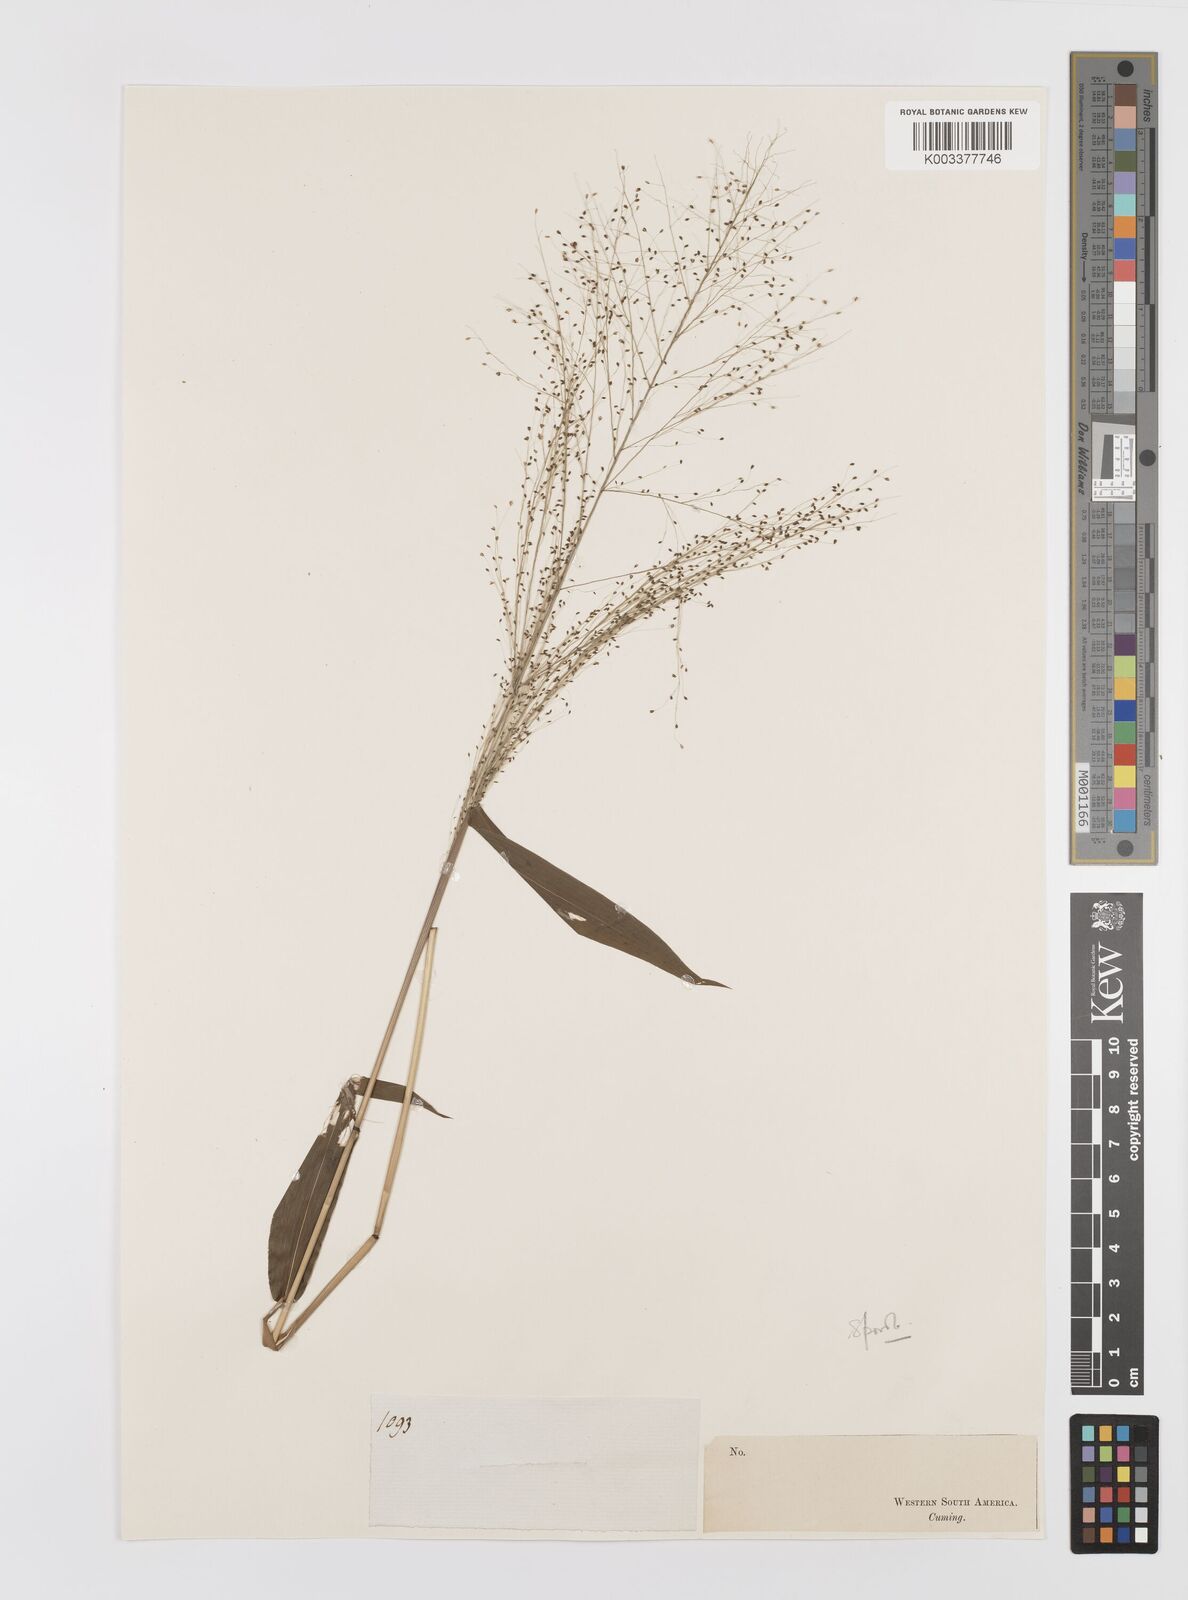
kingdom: Plantae
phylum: Tracheophyta
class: Liliopsida
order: Poales
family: Poaceae
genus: Panicum
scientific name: Panicum trichanthum
